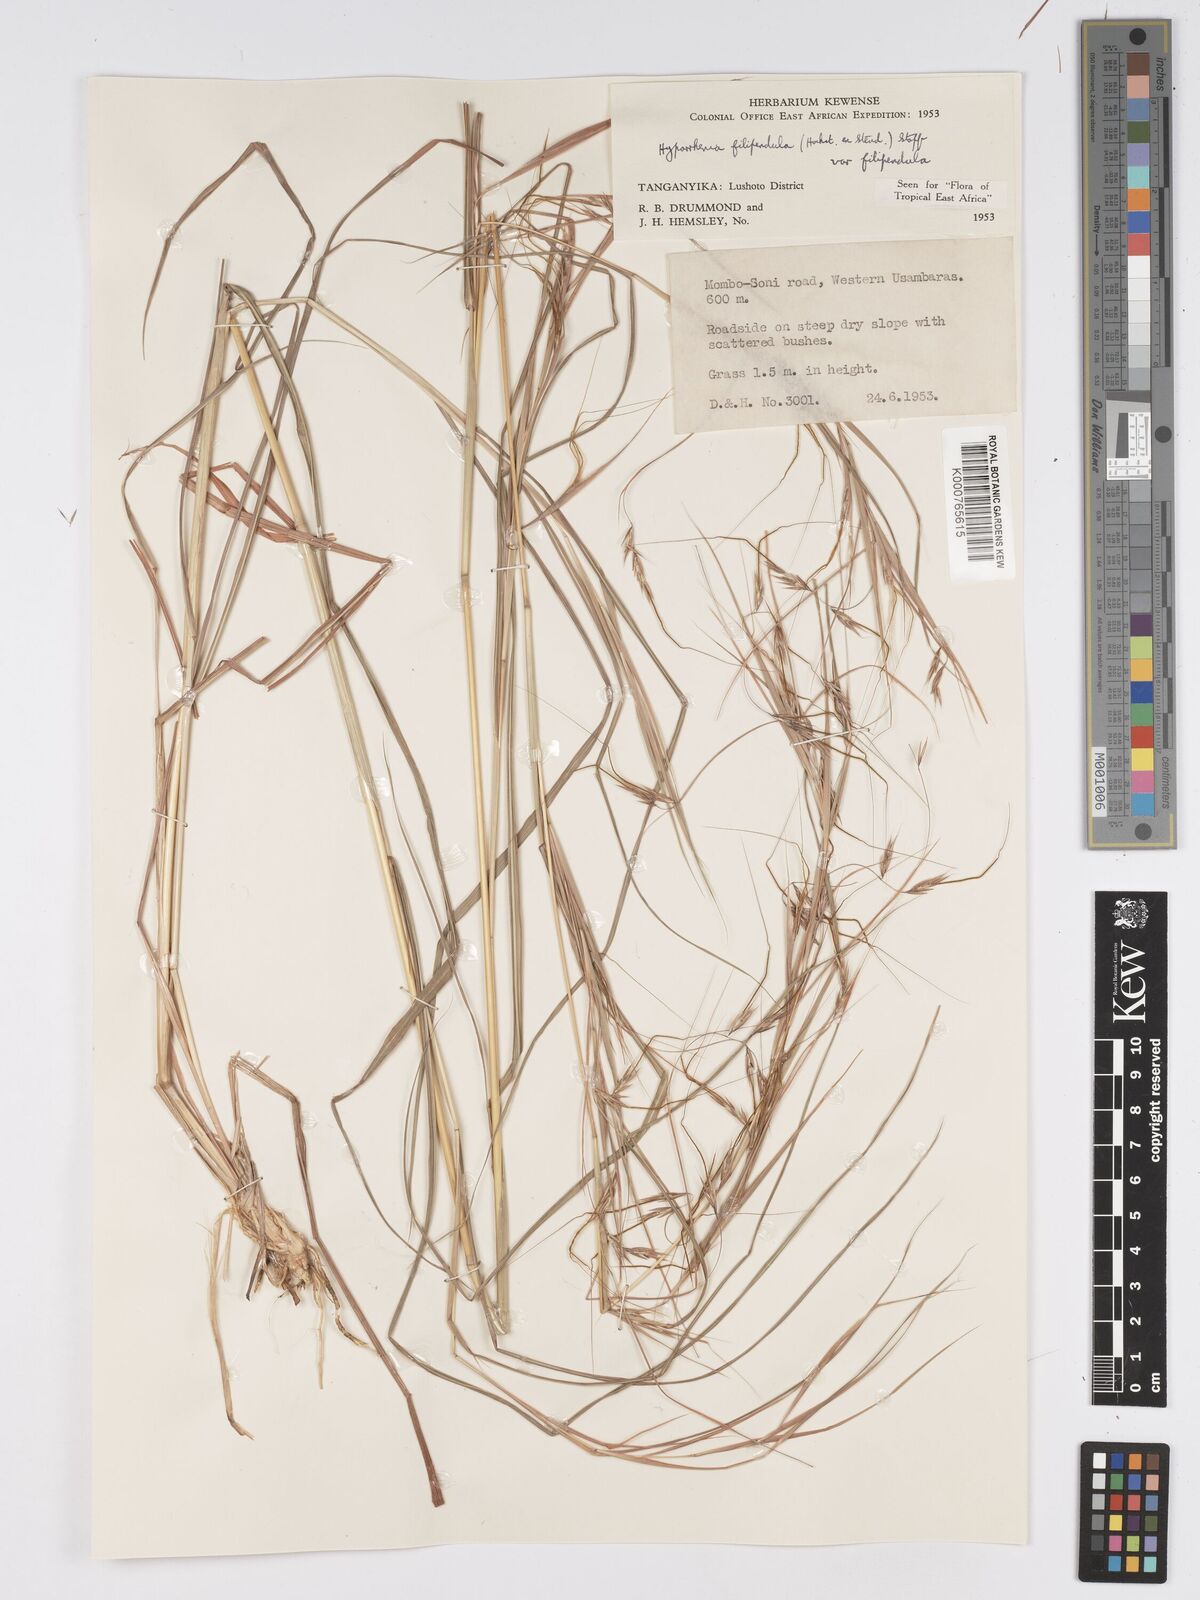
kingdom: Plantae
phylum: Tracheophyta
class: Liliopsida
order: Poales
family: Poaceae
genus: Hyparrhenia
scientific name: Hyparrhenia filipendula
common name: Tambookie grass
